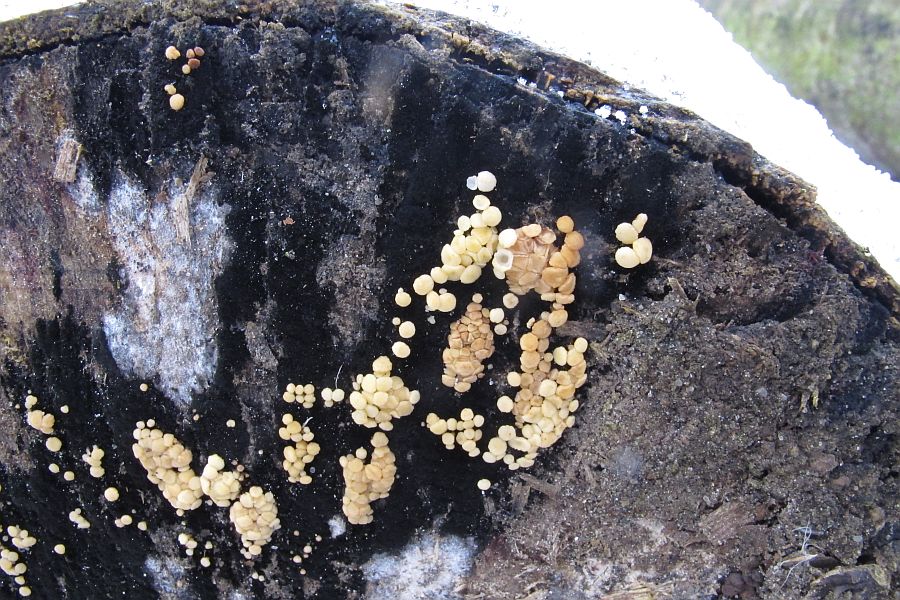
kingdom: Fungi
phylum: Ascomycota
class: Leotiomycetes
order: Helotiales
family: Helotiaceae
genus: Bispora
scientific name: Bispora pallescens
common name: måtte-snitskive
